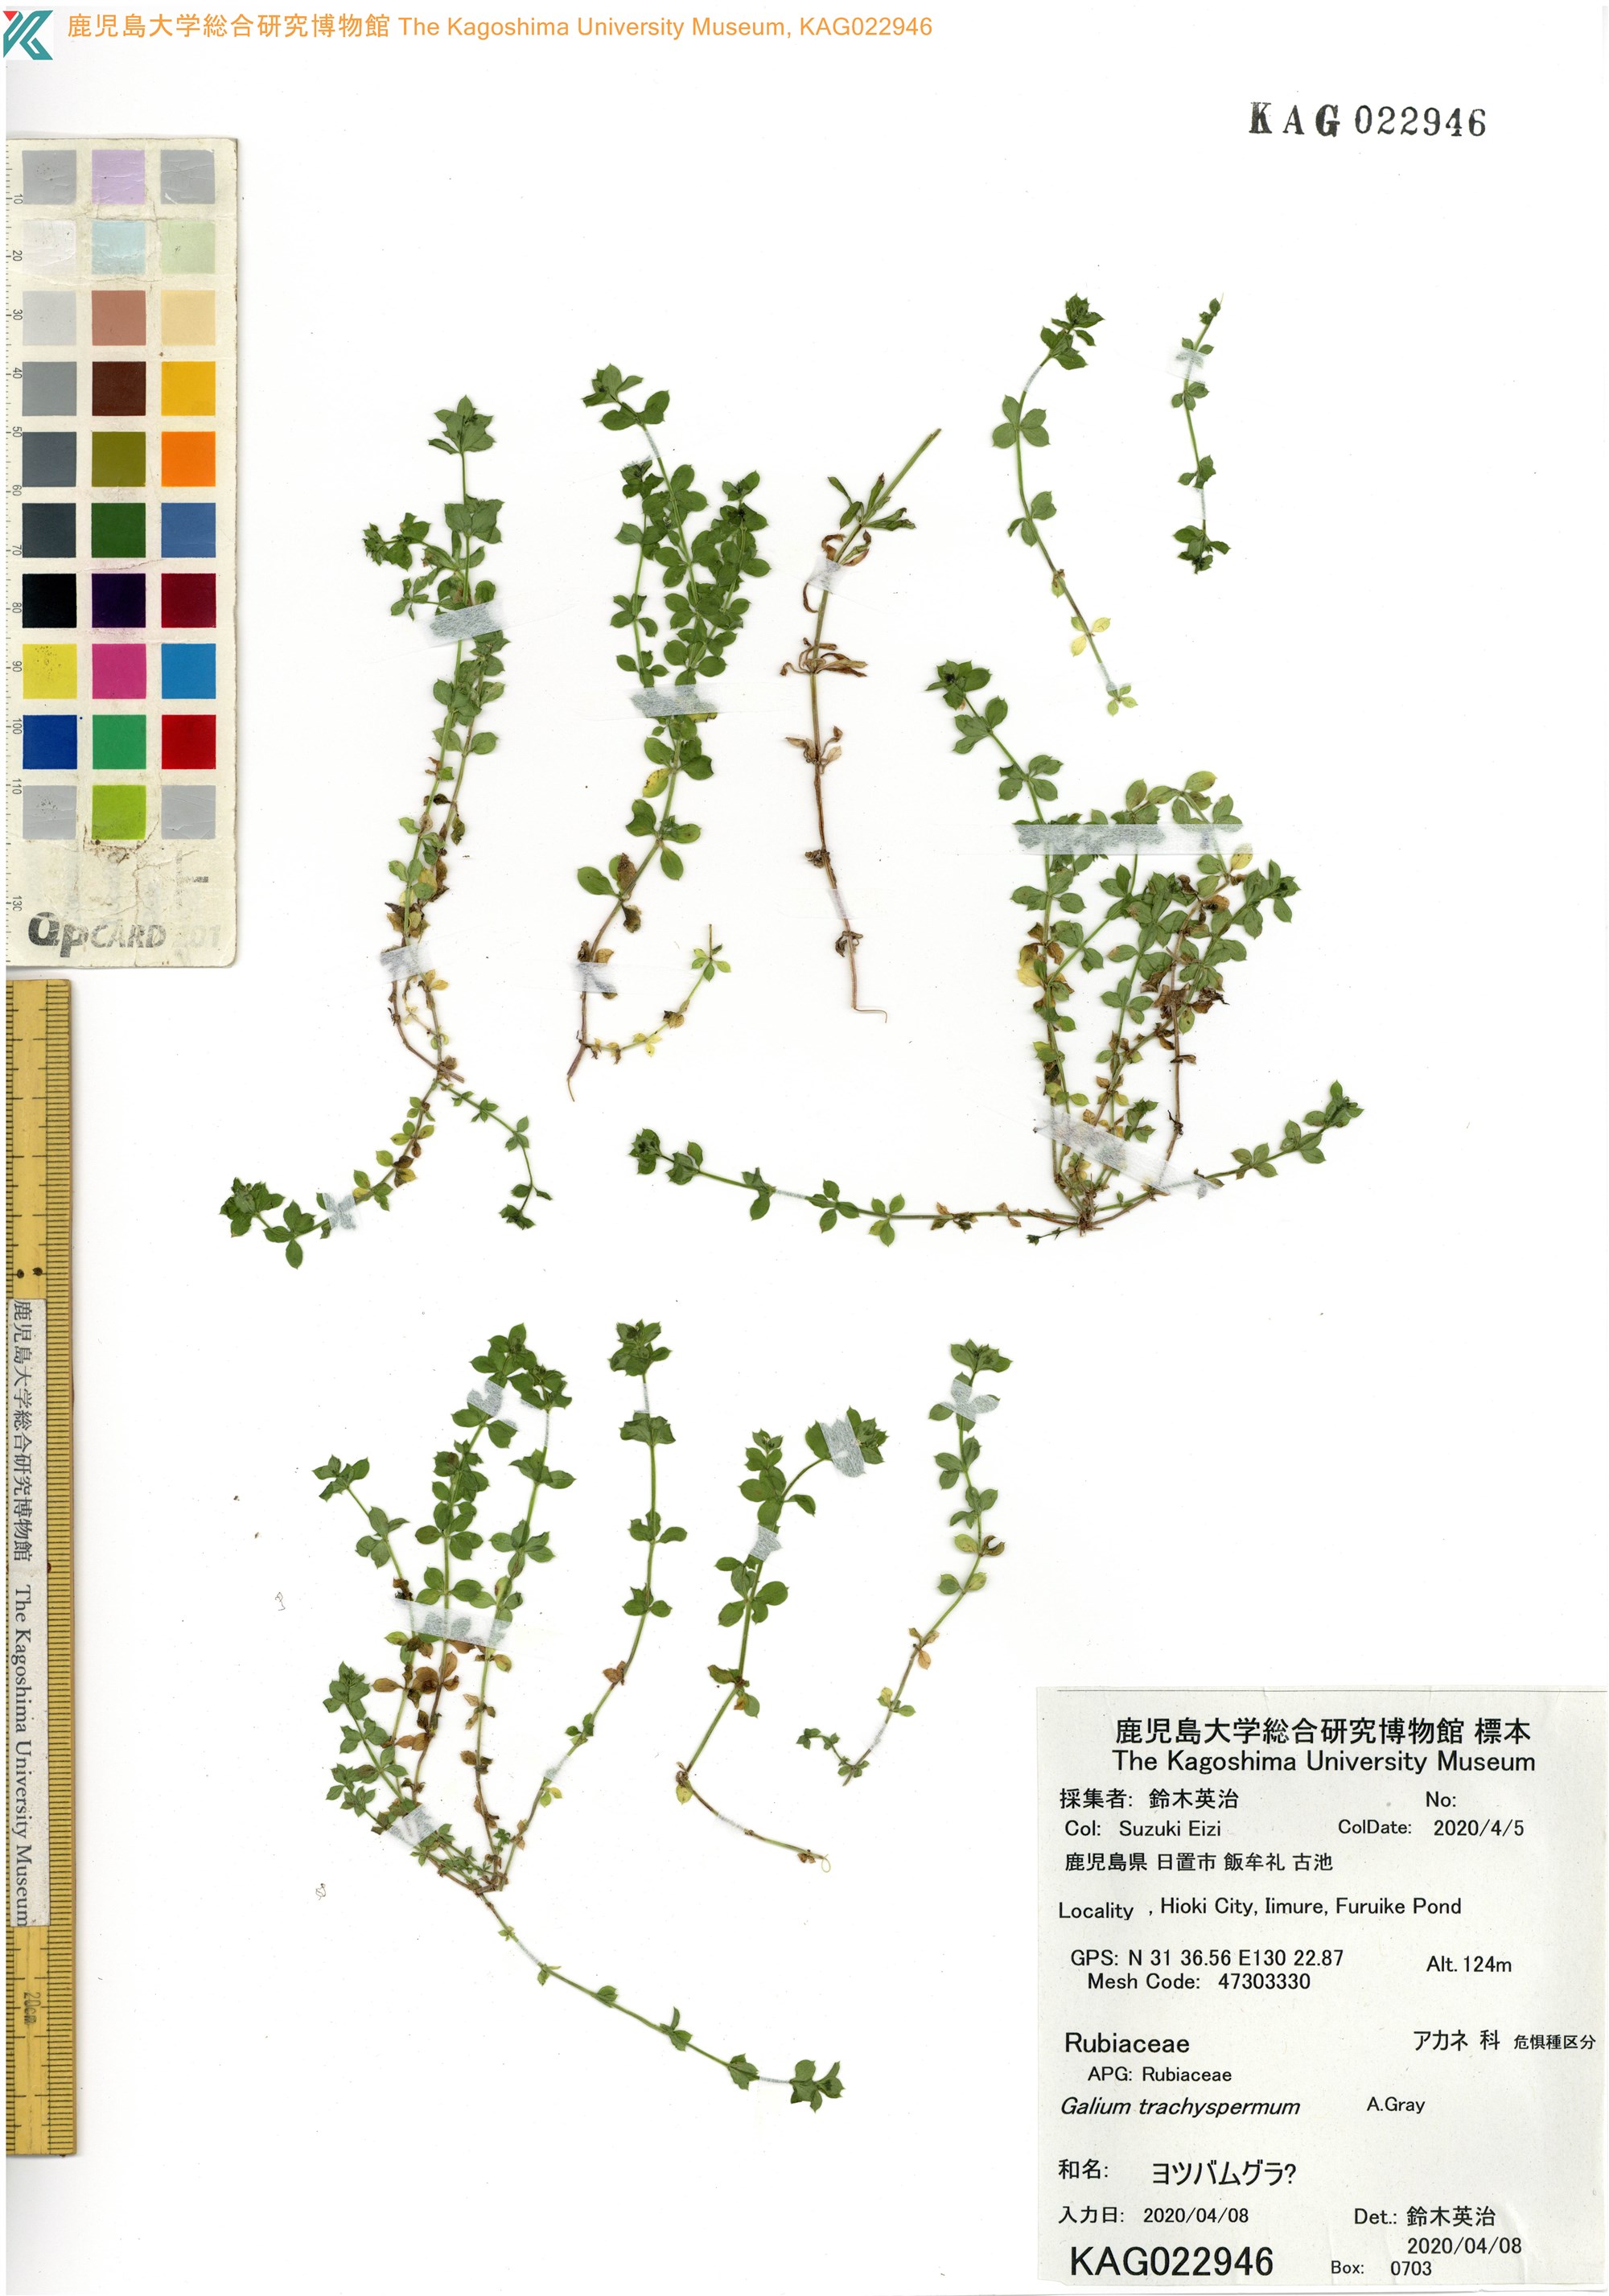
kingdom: Plantae
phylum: Tracheophyta
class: Magnoliopsida
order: Gentianales
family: Rubiaceae
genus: Galium
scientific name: Galium kikumugura
